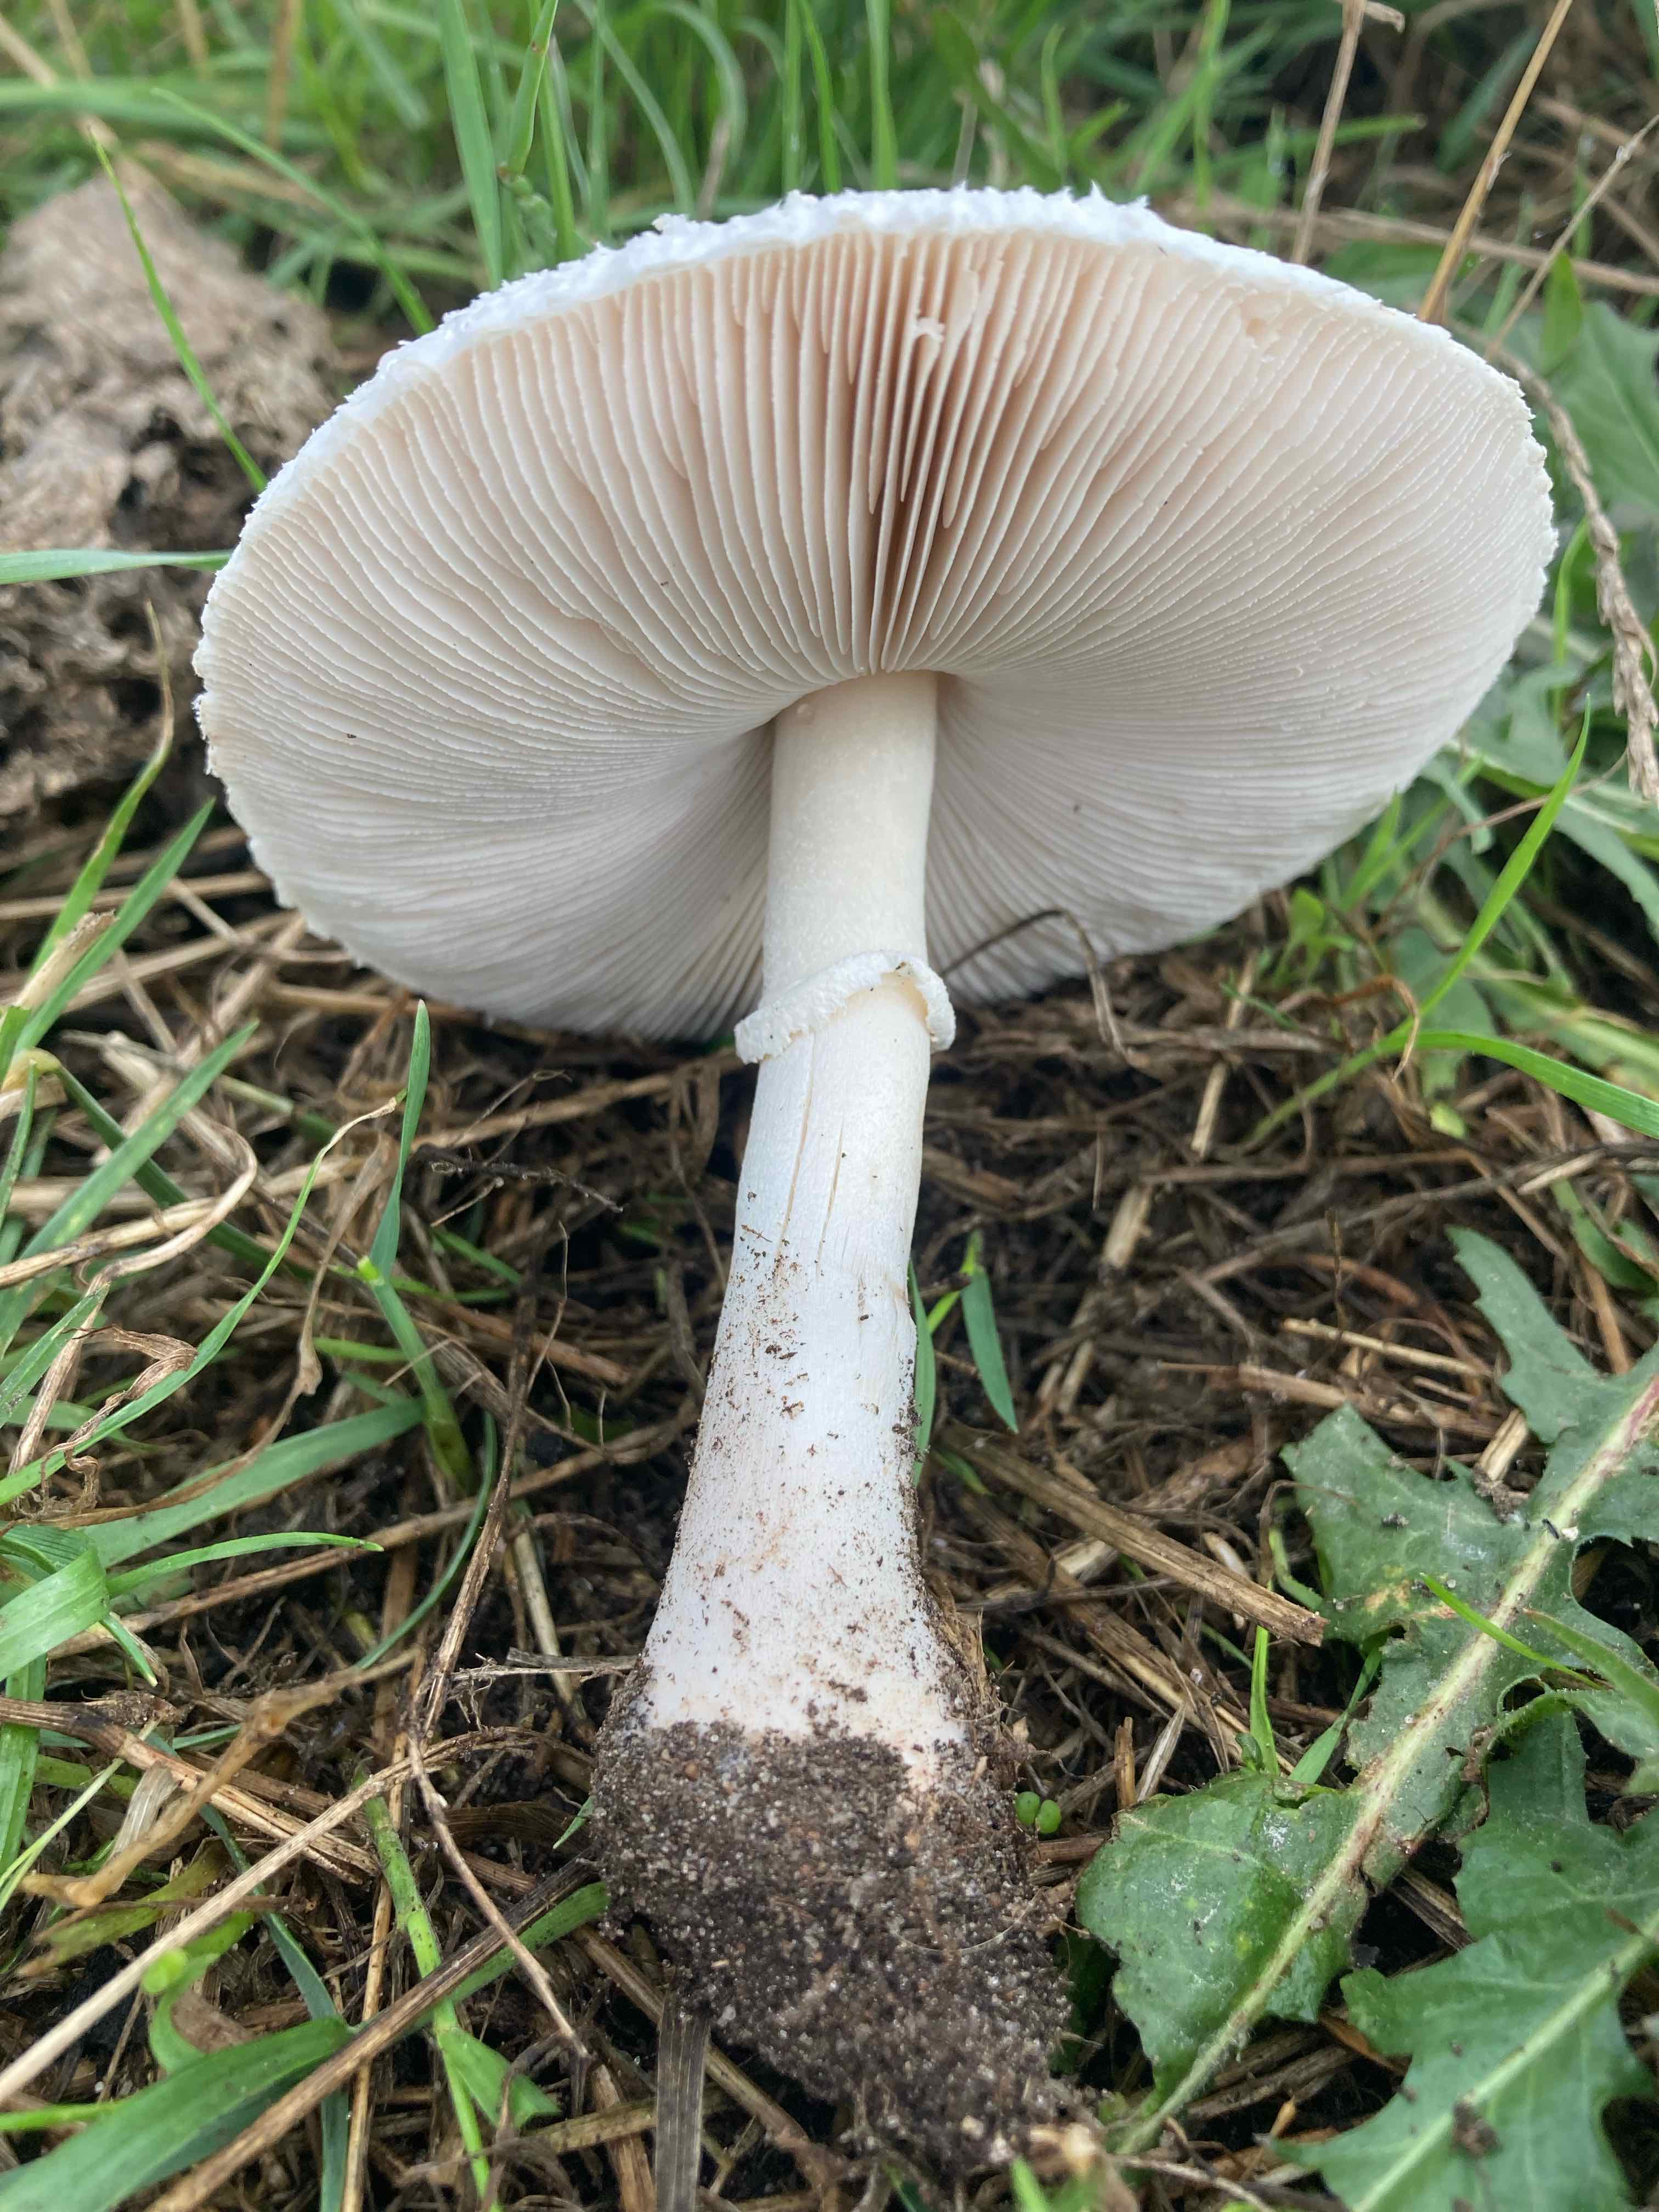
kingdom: Fungi
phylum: Basidiomycota
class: Agaricomycetes
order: Agaricales
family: Agaricaceae
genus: Macrolepiota
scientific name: Macrolepiota excoriata
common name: mark-kæmpeparasolhat
